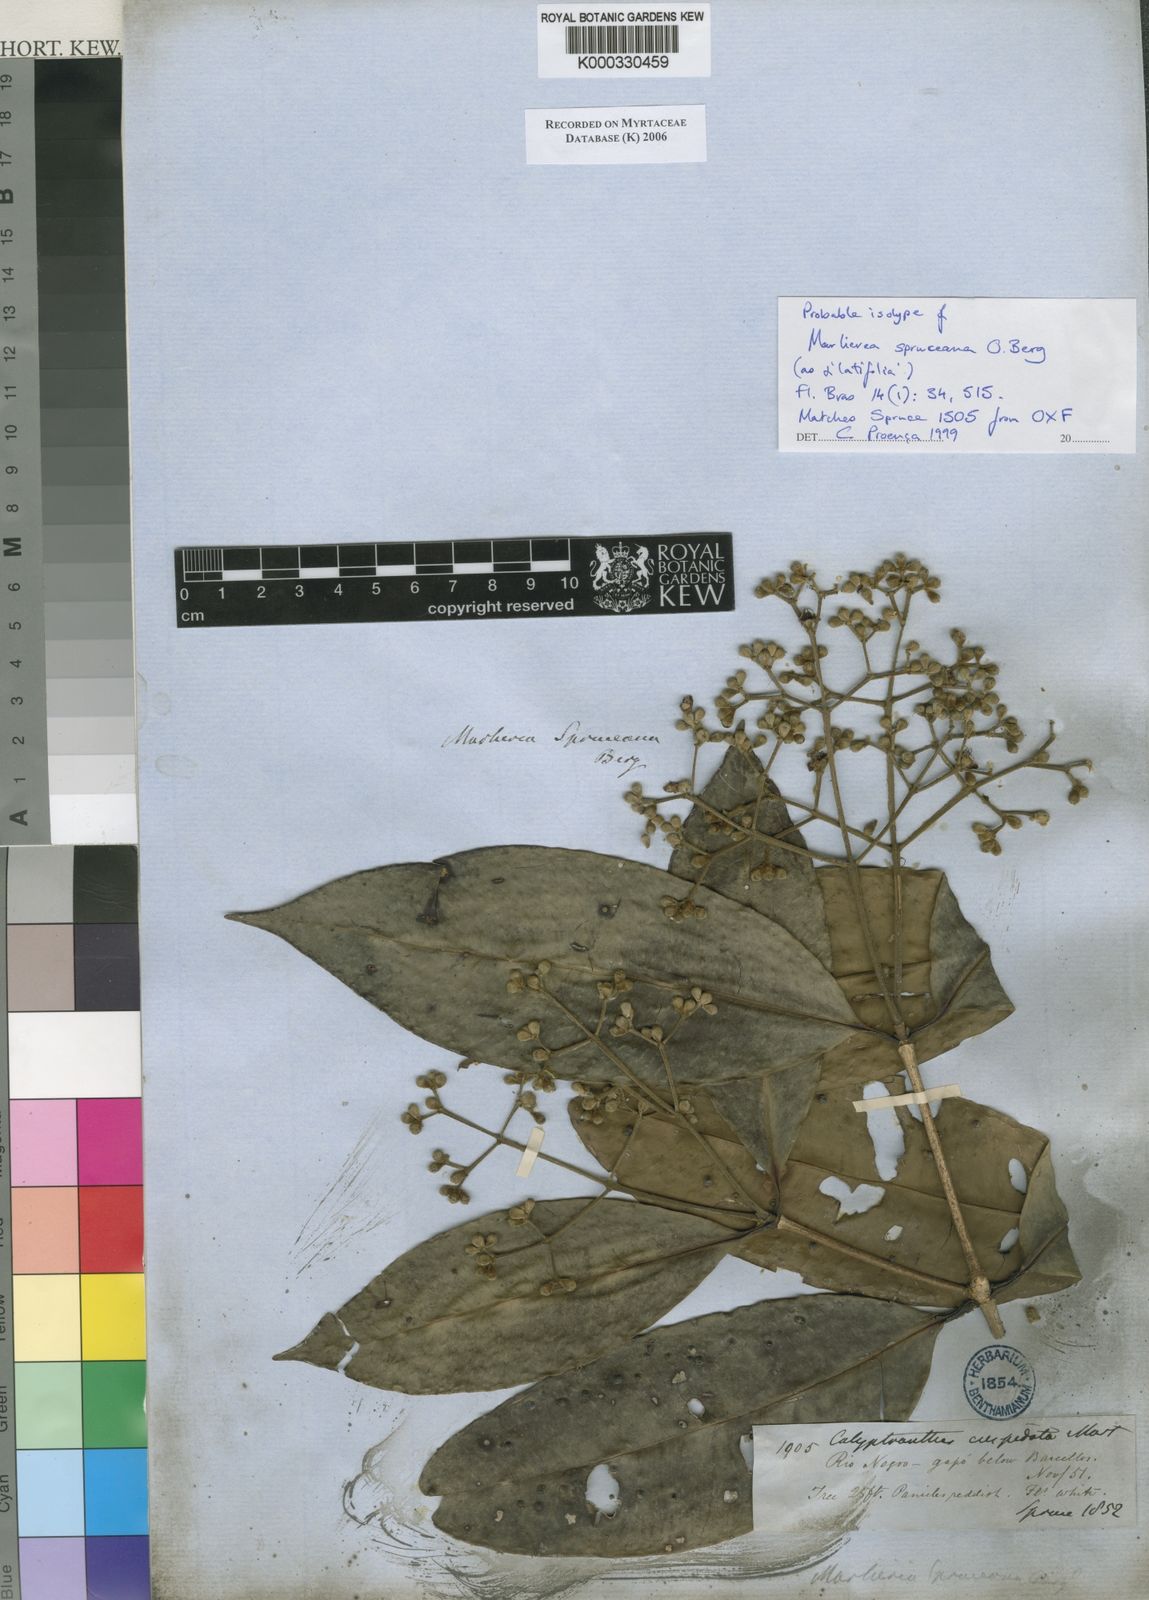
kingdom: Plantae
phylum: Tracheophyta
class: Magnoliopsida
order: Myrtales
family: Myrtaceae
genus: Myrcia
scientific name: Myrcia argentigemma
